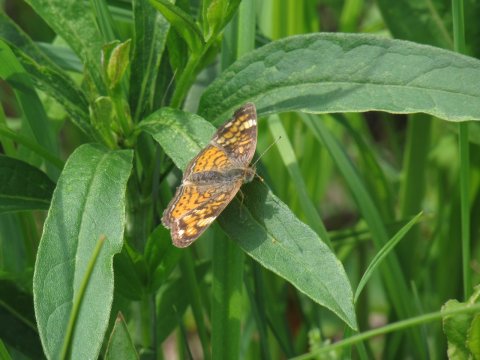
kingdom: Animalia
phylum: Arthropoda
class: Insecta
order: Lepidoptera
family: Nymphalidae
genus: Phyciodes
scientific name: Phyciodes tharos
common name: Pearl Crescent
